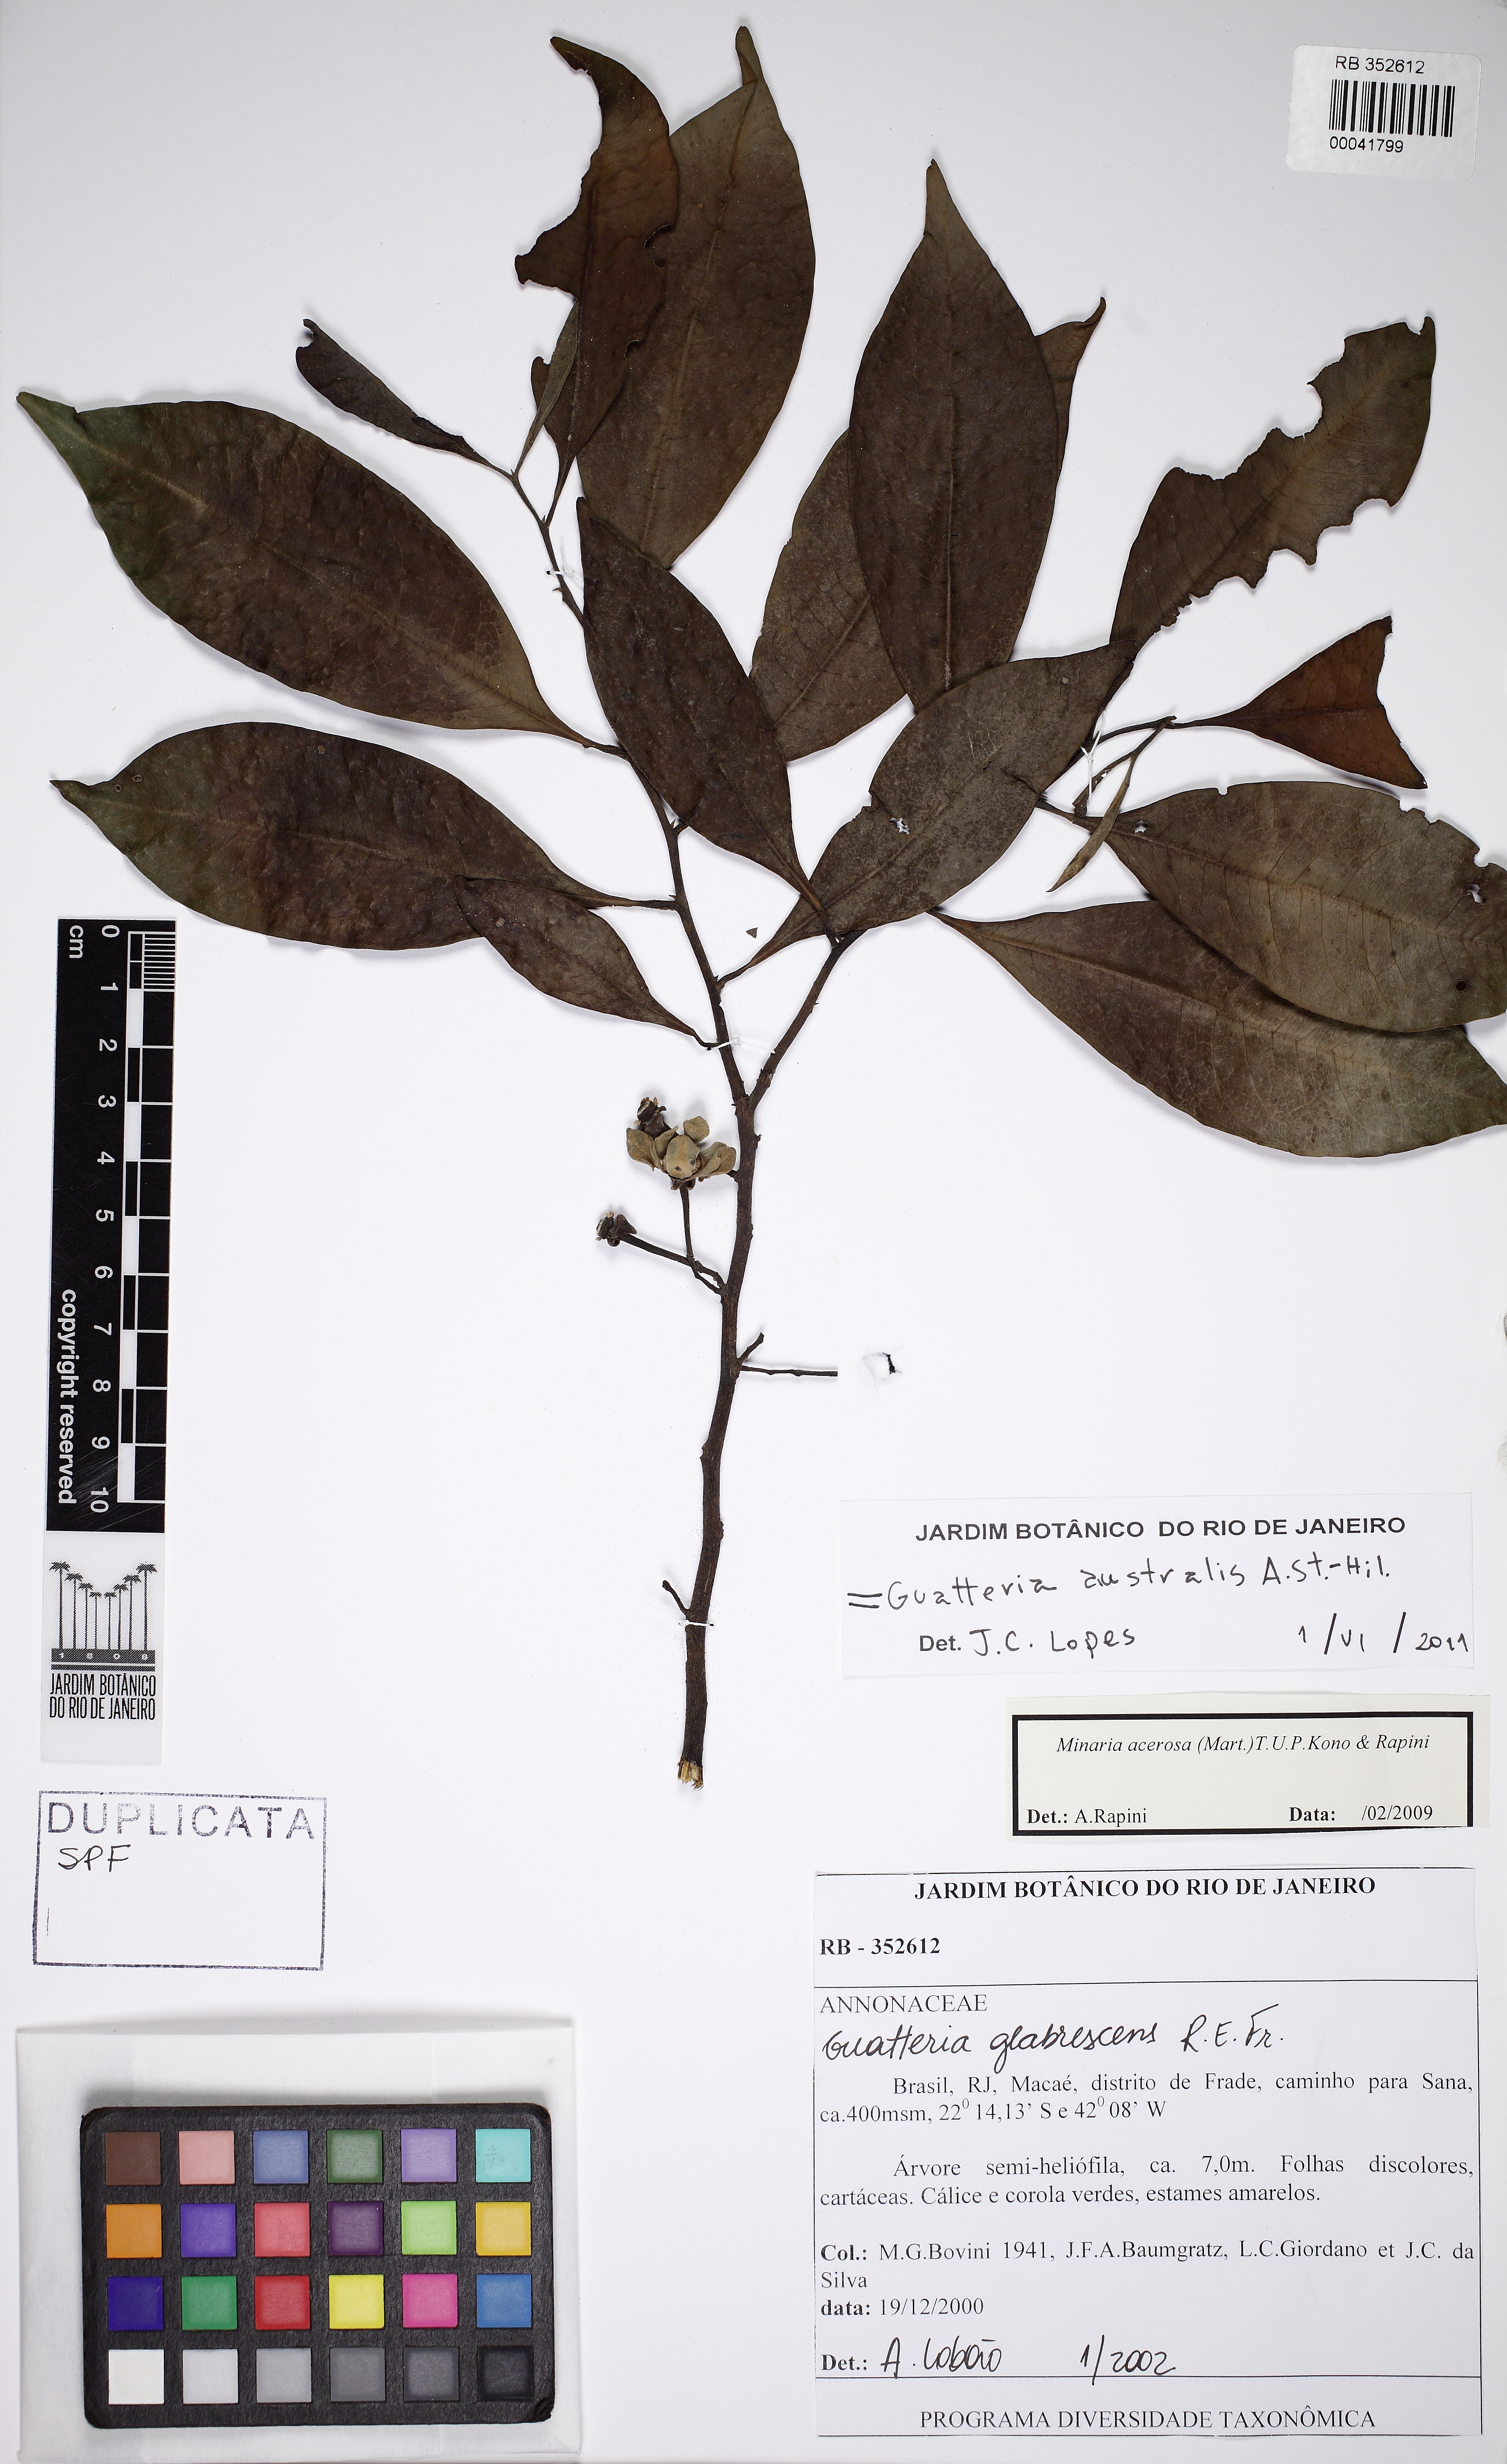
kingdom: Plantae
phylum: Tracheophyta
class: Magnoliopsida
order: Magnoliales
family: Annonaceae
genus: Guatteria
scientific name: Guatteria australis
